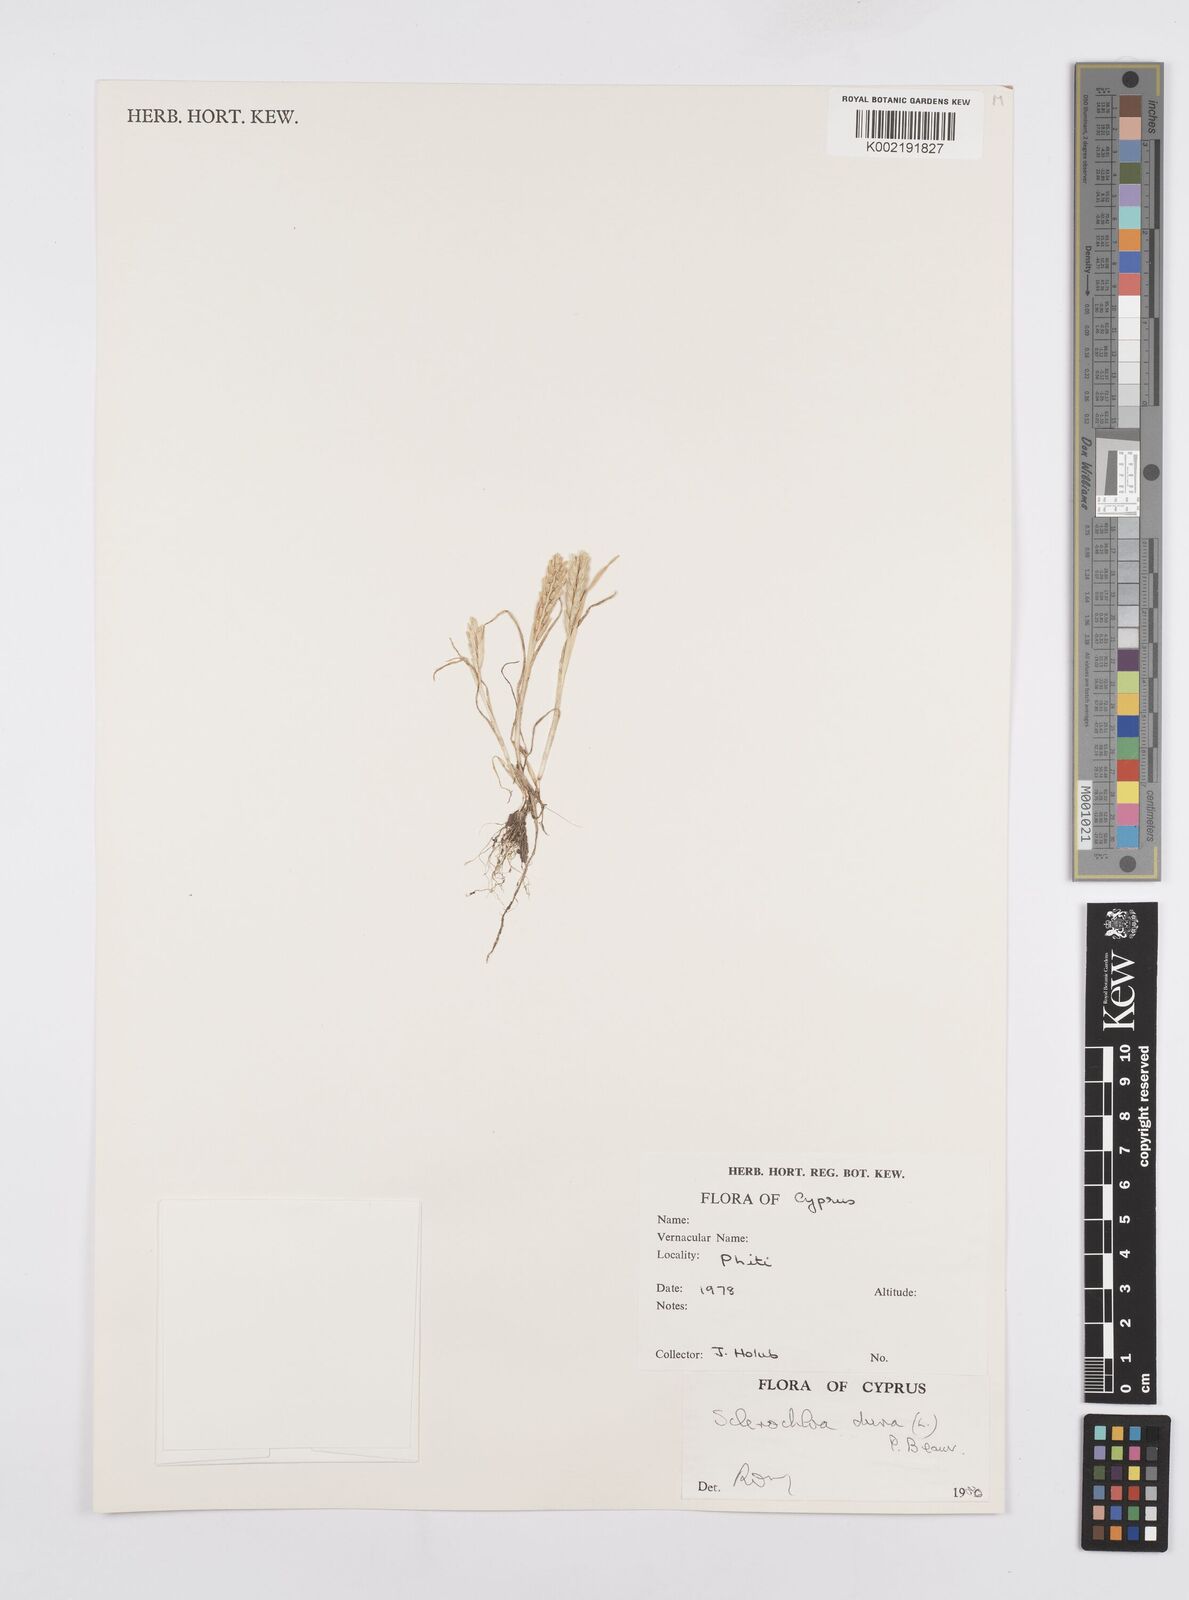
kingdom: Plantae
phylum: Tracheophyta
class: Liliopsida
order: Poales
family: Poaceae
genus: Sclerochloa
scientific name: Sclerochloa dura
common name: Common hardgrass
